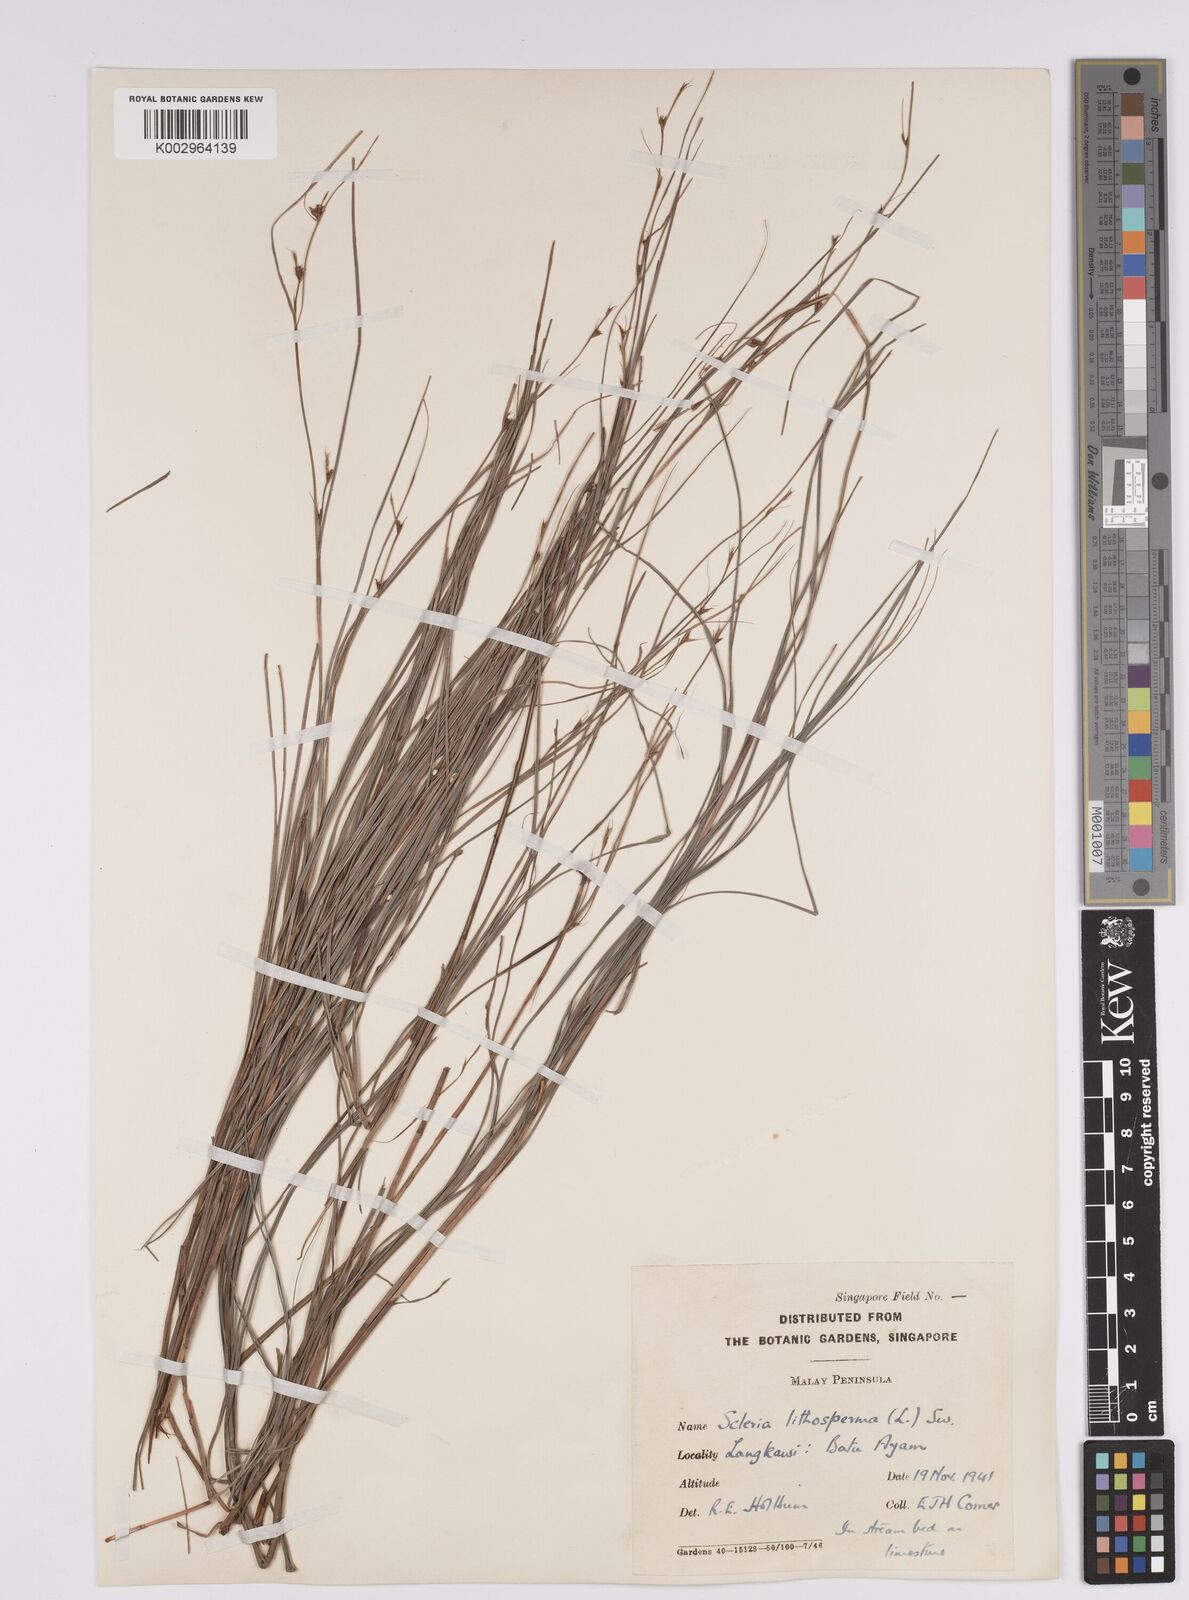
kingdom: Plantae
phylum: Tracheophyta
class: Liliopsida
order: Poales
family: Cyperaceae
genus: Scleria
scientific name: Scleria lithosperma
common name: Florida keys nut-rush
